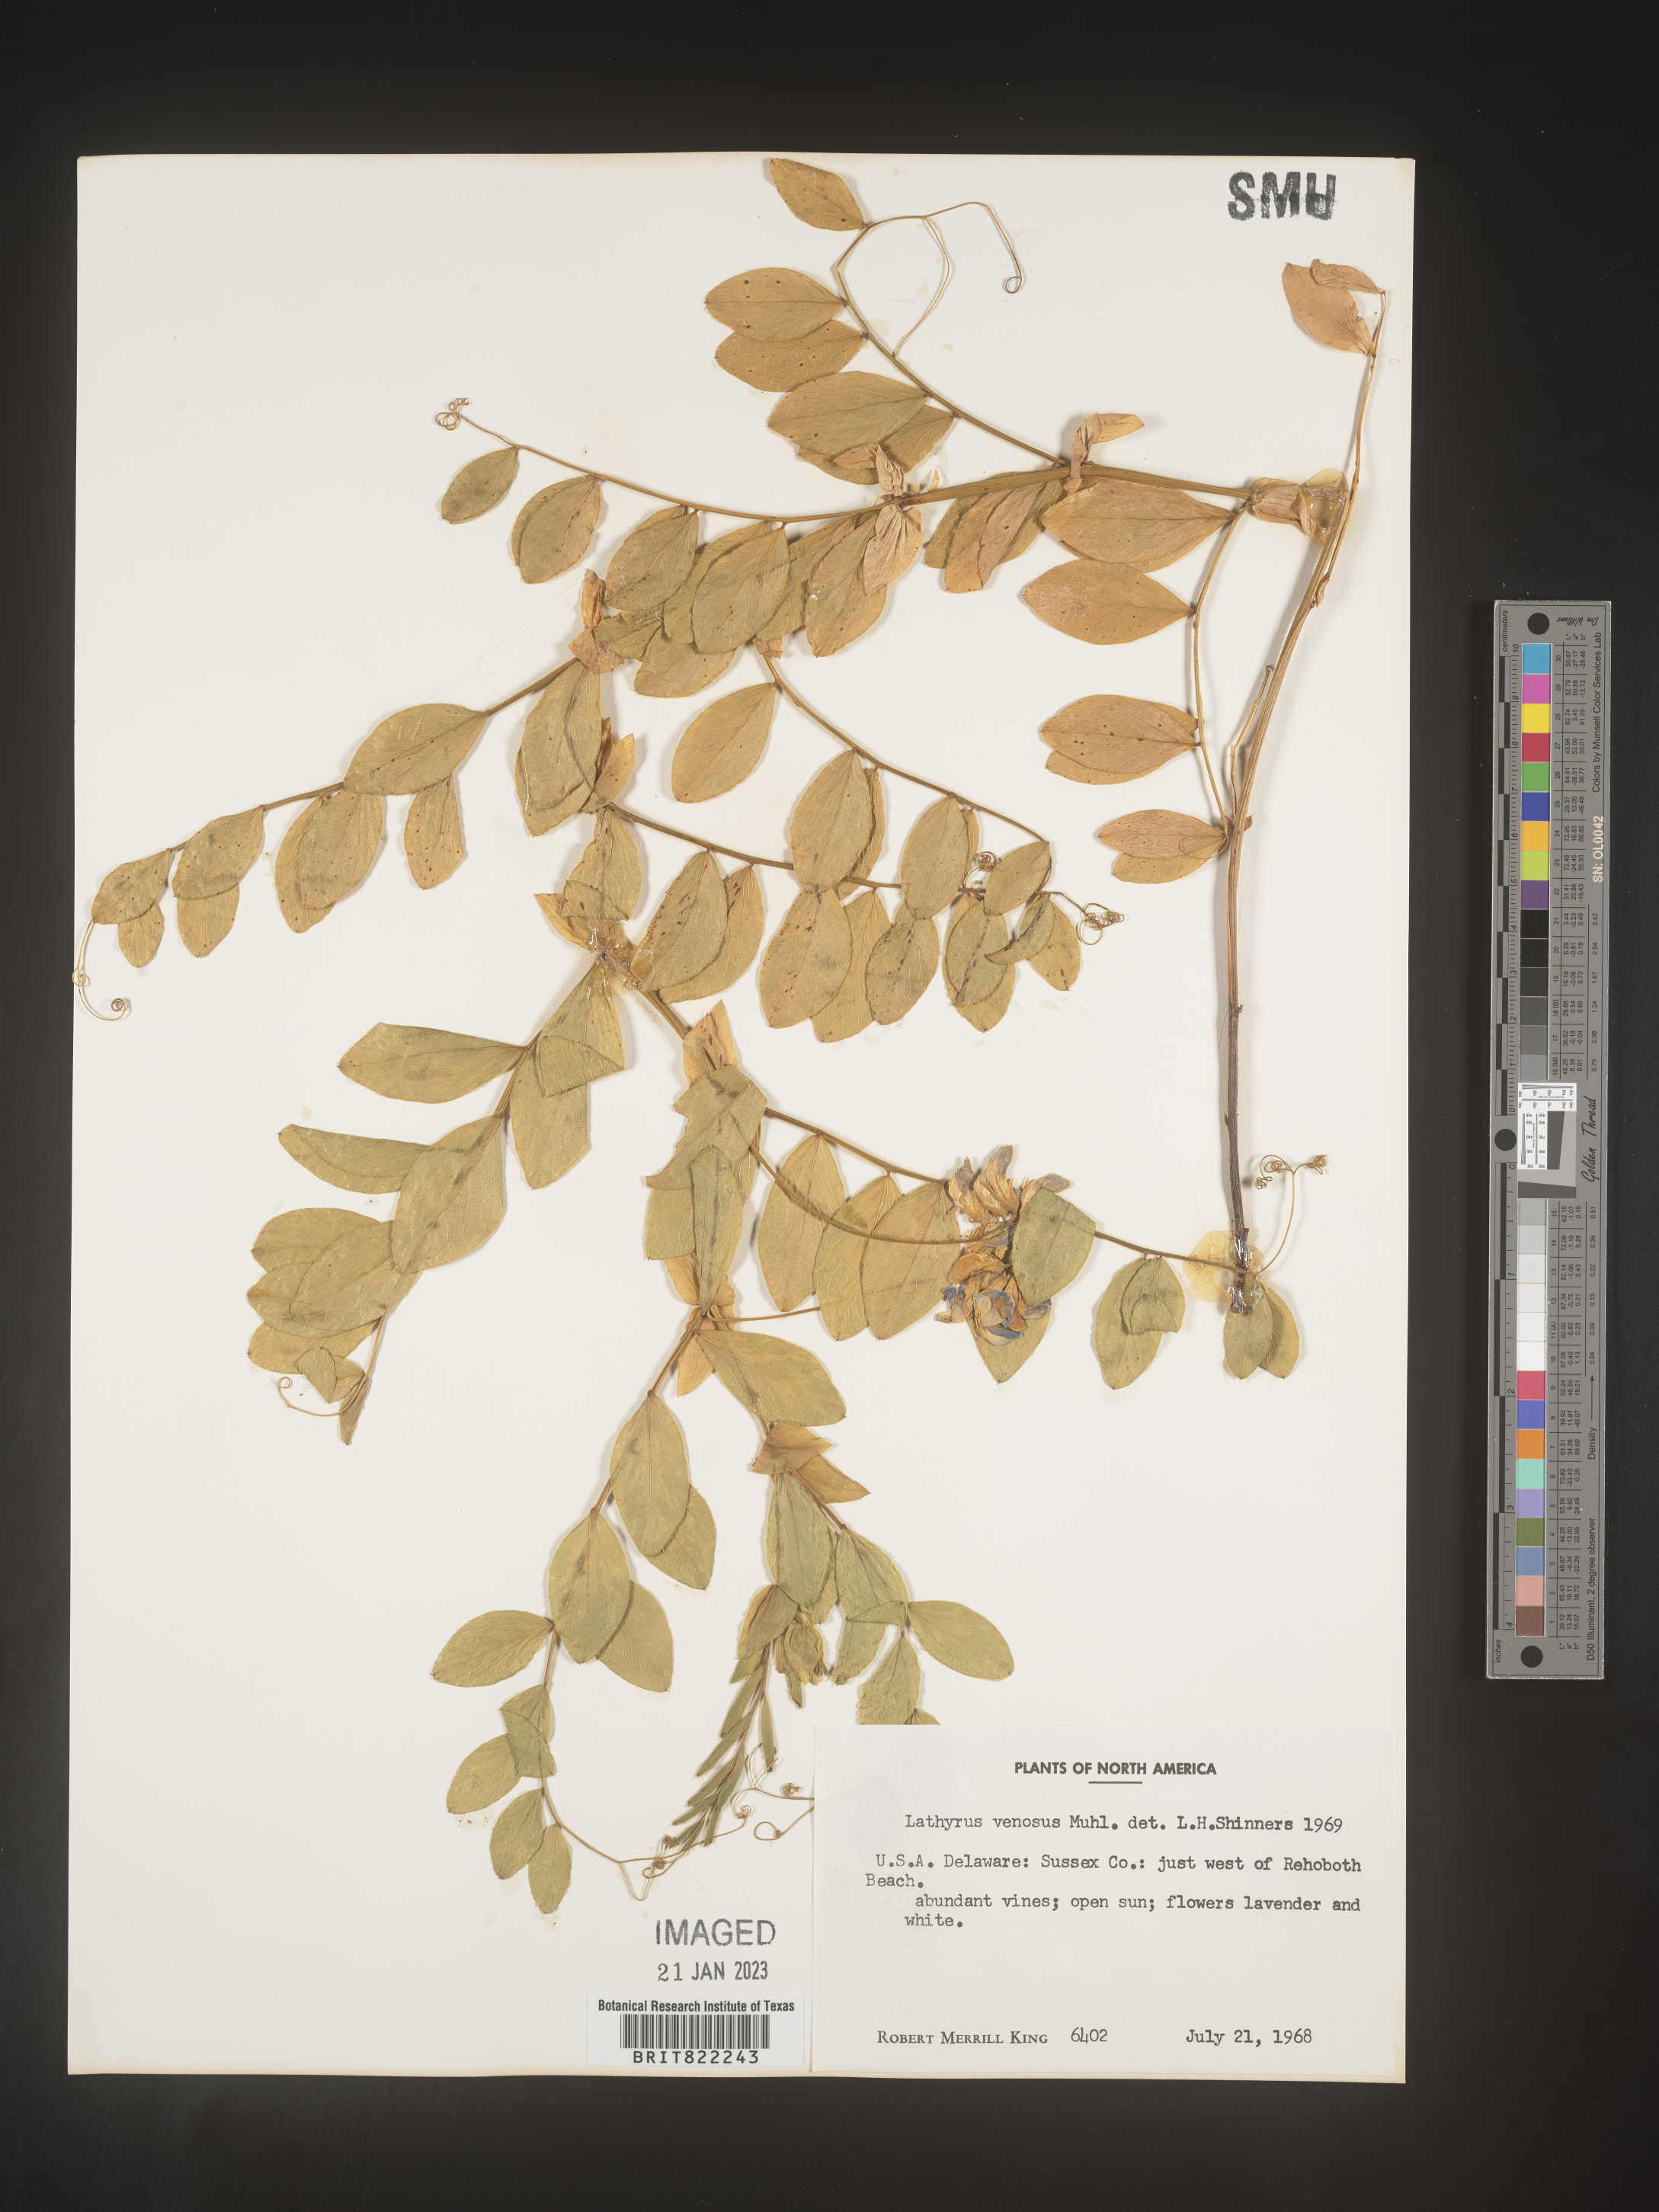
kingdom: Plantae
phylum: Tracheophyta
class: Magnoliopsida
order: Fabales
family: Fabaceae
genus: Lathyrus
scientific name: Lathyrus venosus
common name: Forest-pea
